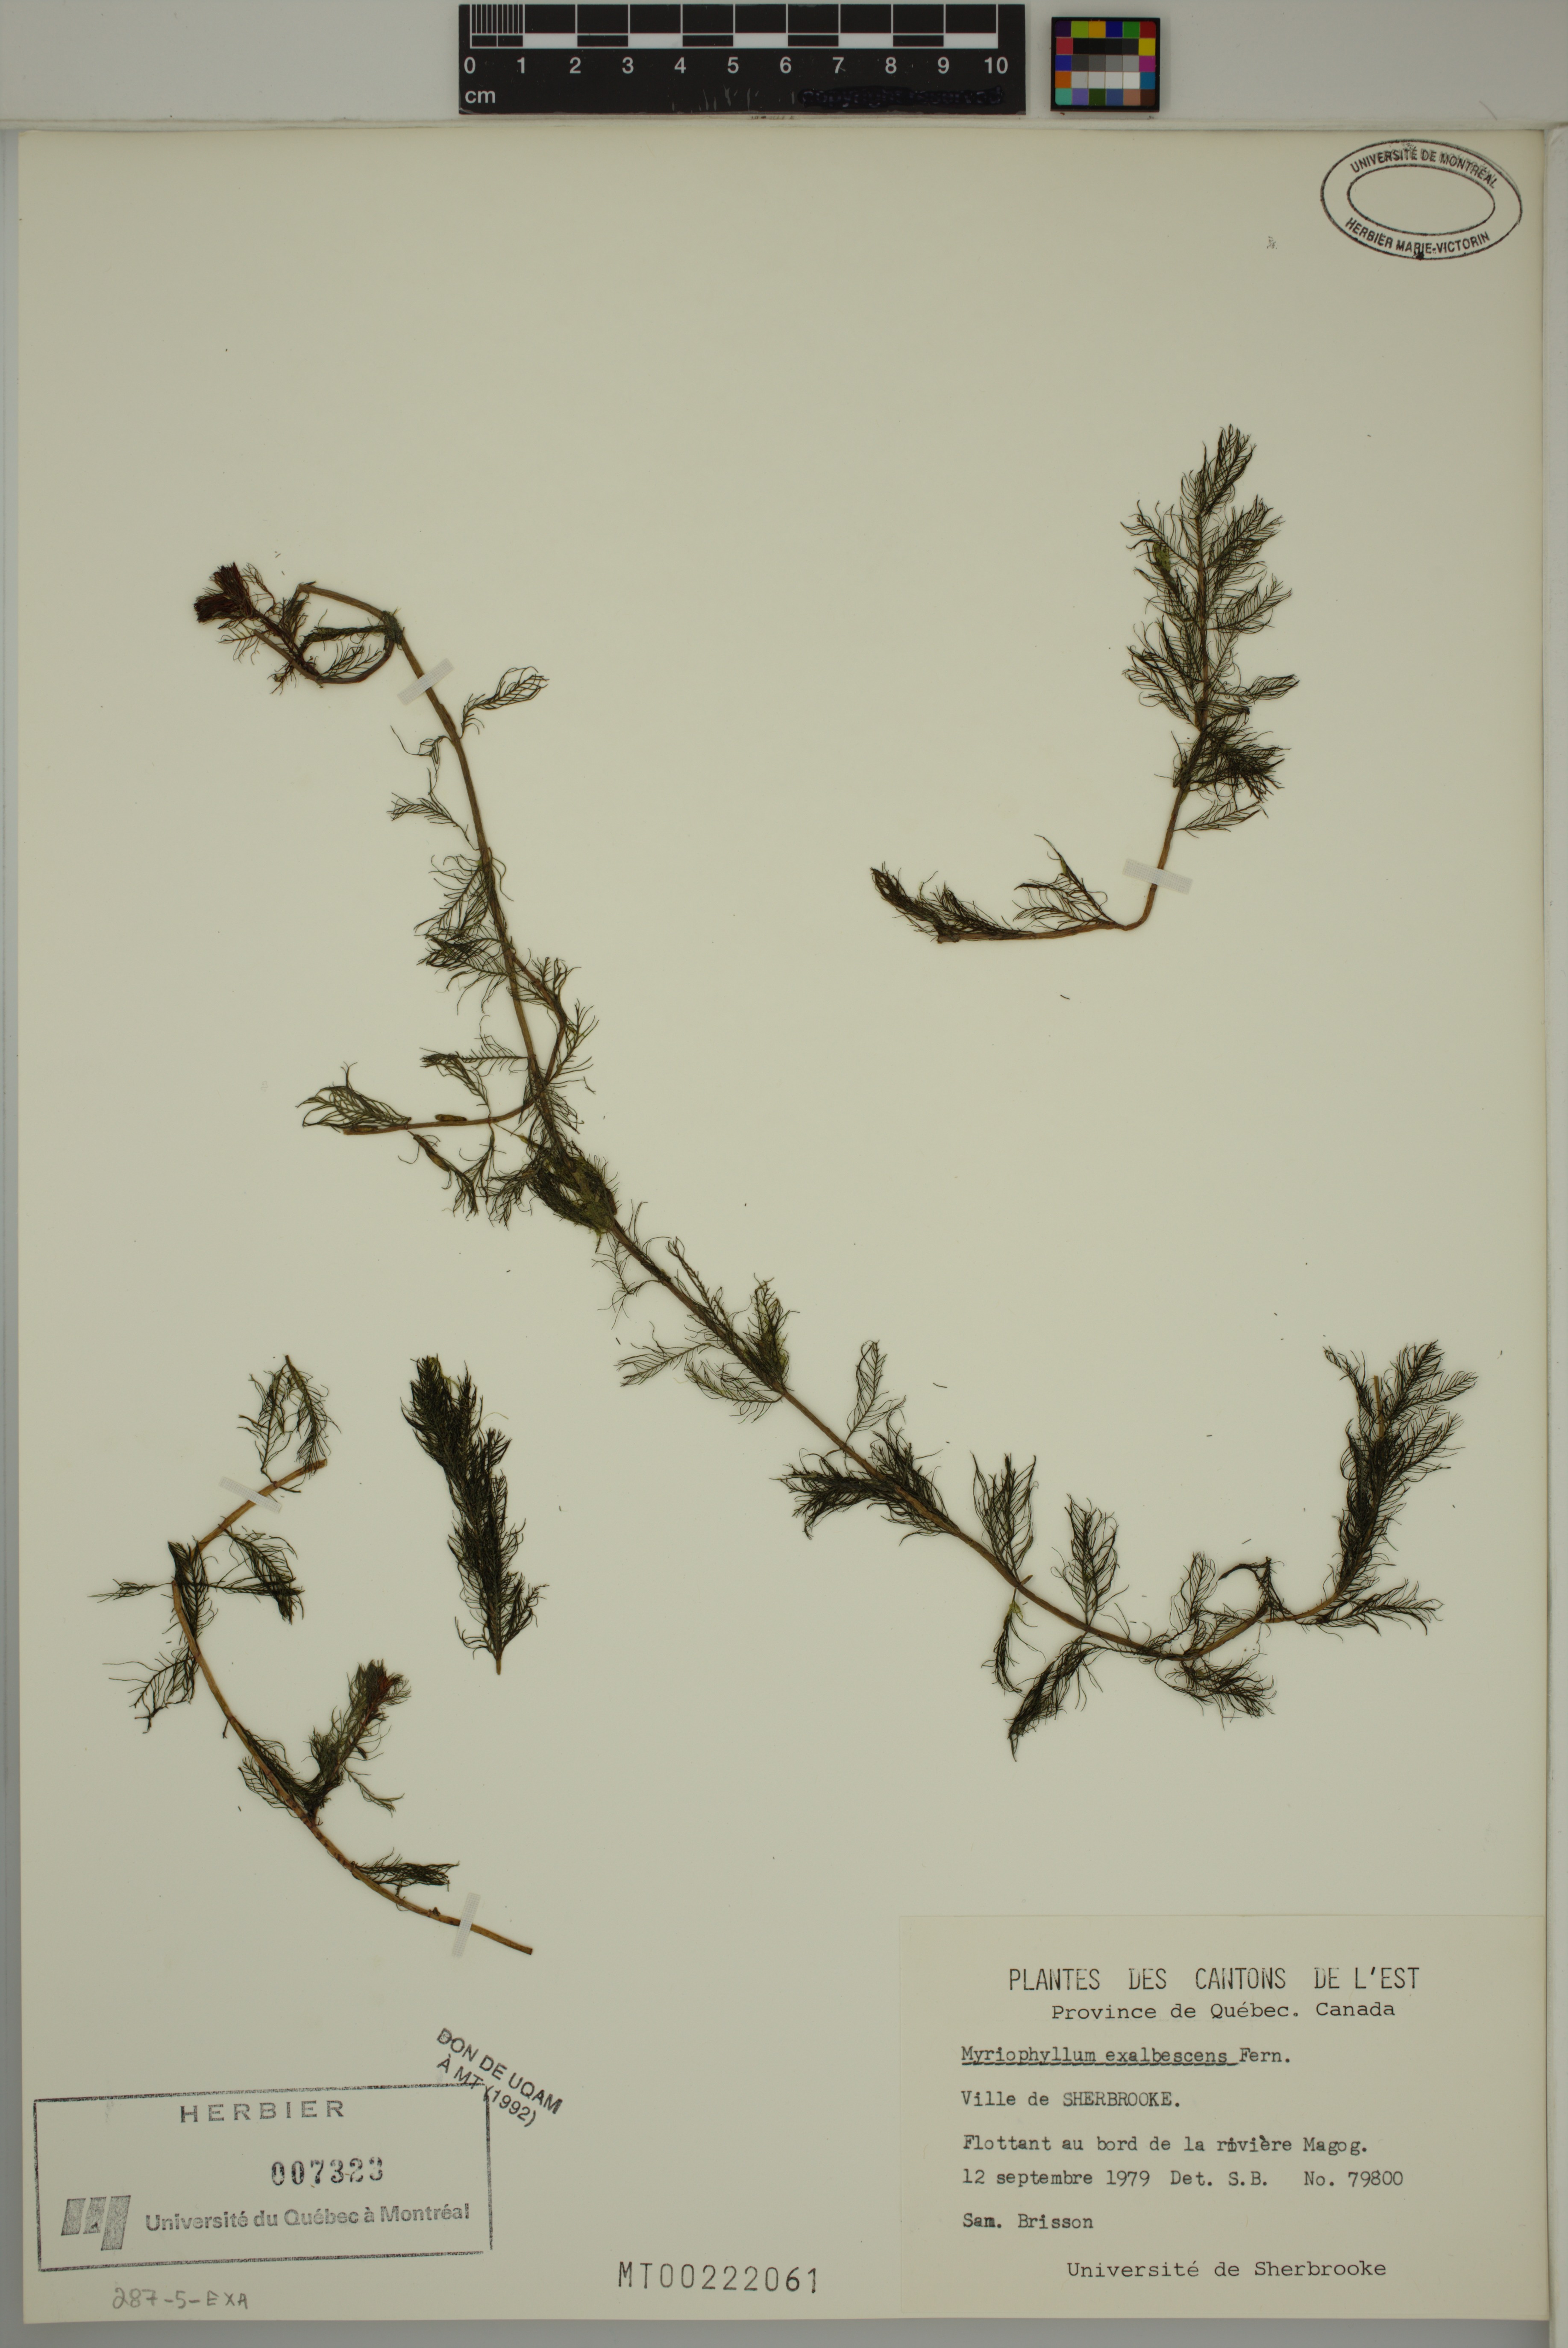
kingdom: Plantae
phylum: Tracheophyta
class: Magnoliopsida
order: Saxifragales
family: Haloragaceae
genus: Myriophyllum
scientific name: Myriophyllum sibiricum
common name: Siberian water-milfoil
